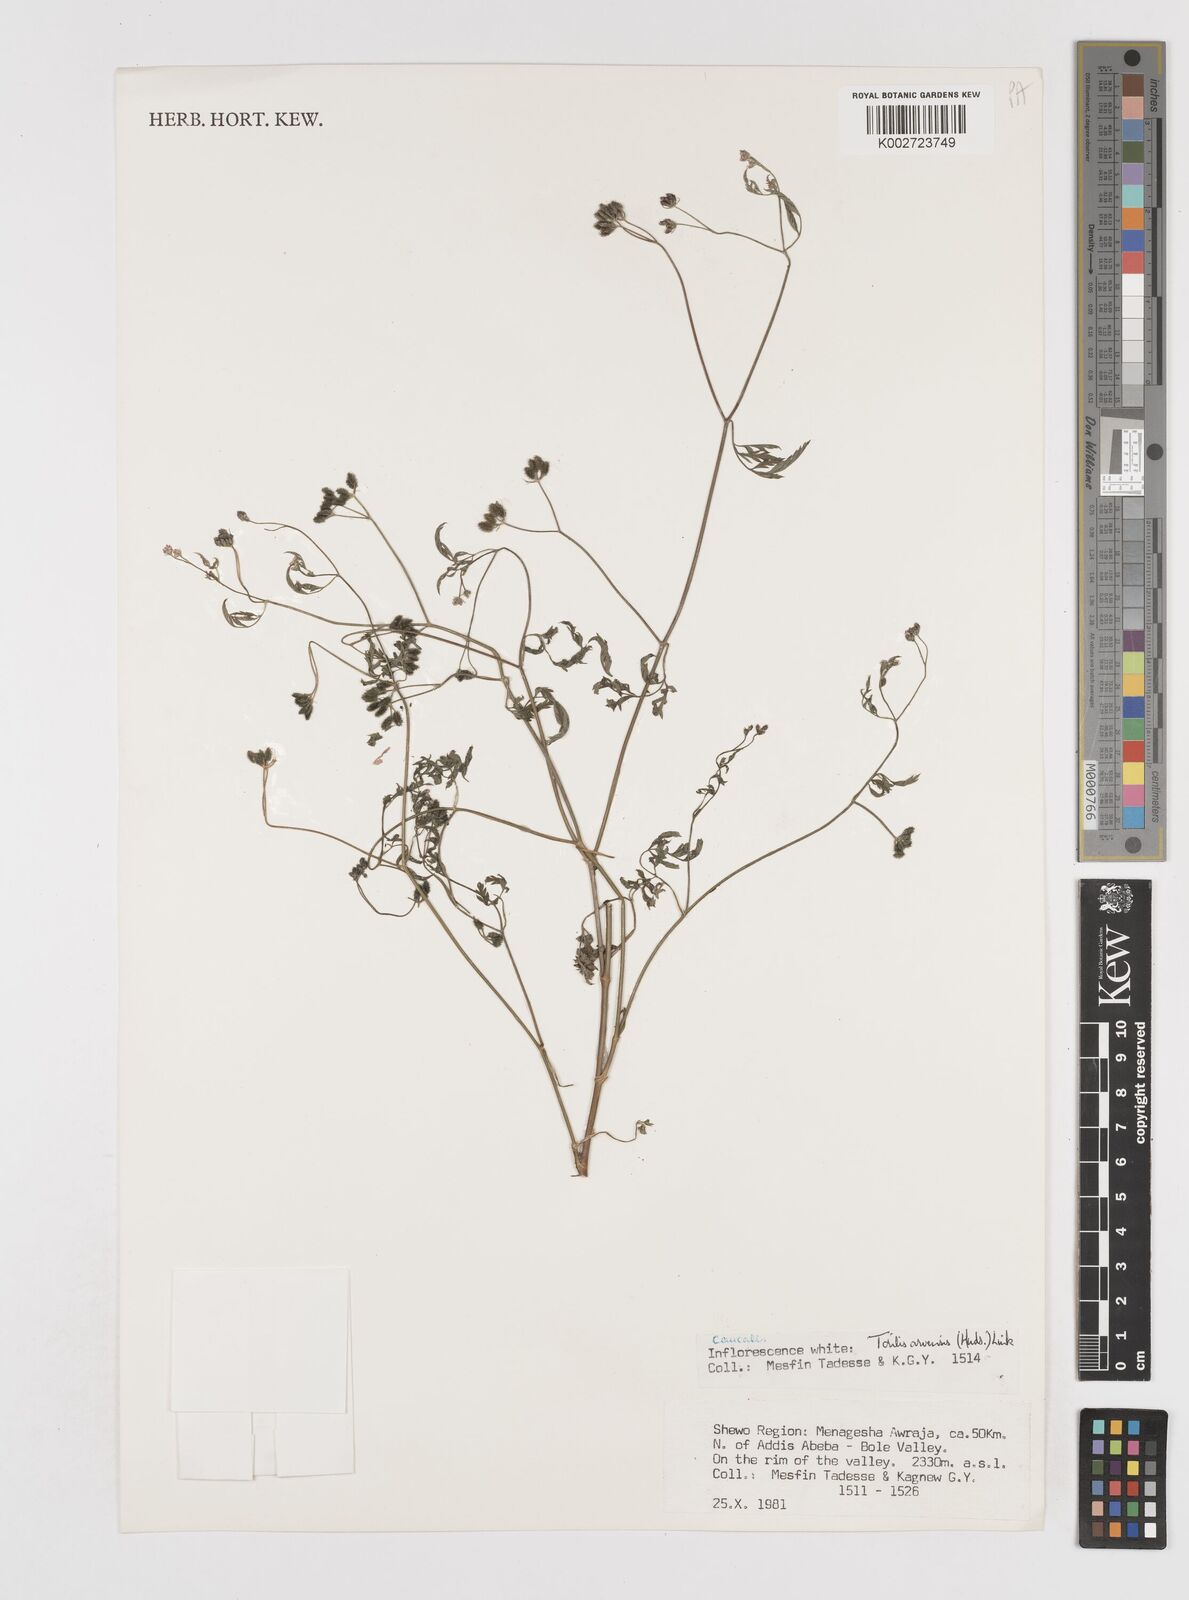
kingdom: Plantae
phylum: Tracheophyta
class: Magnoliopsida
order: Apiales
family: Apiaceae
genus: Torilis
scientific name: Torilis arvensis
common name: Spreading hedge-parsley
